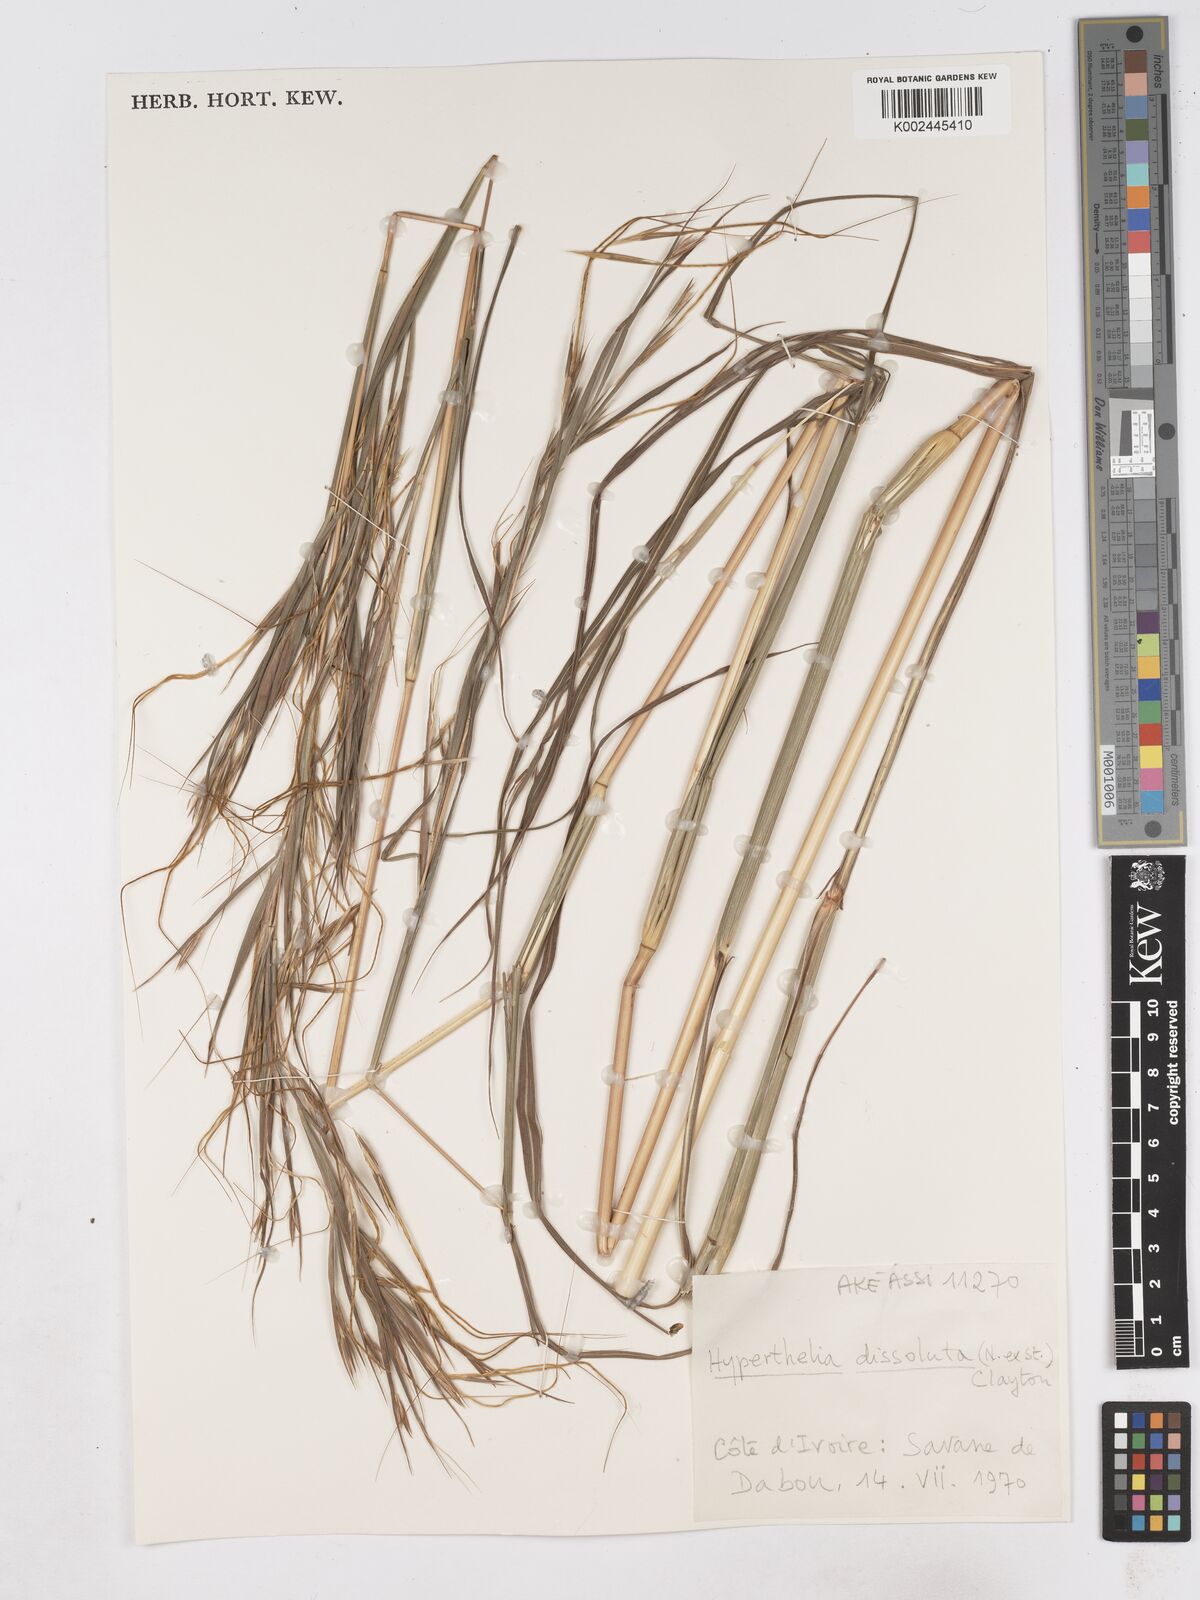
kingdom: Plantae
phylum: Tracheophyta
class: Liliopsida
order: Poales
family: Poaceae
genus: Hyperthelia
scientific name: Hyperthelia dissoluta
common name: Yellow thatching grass
